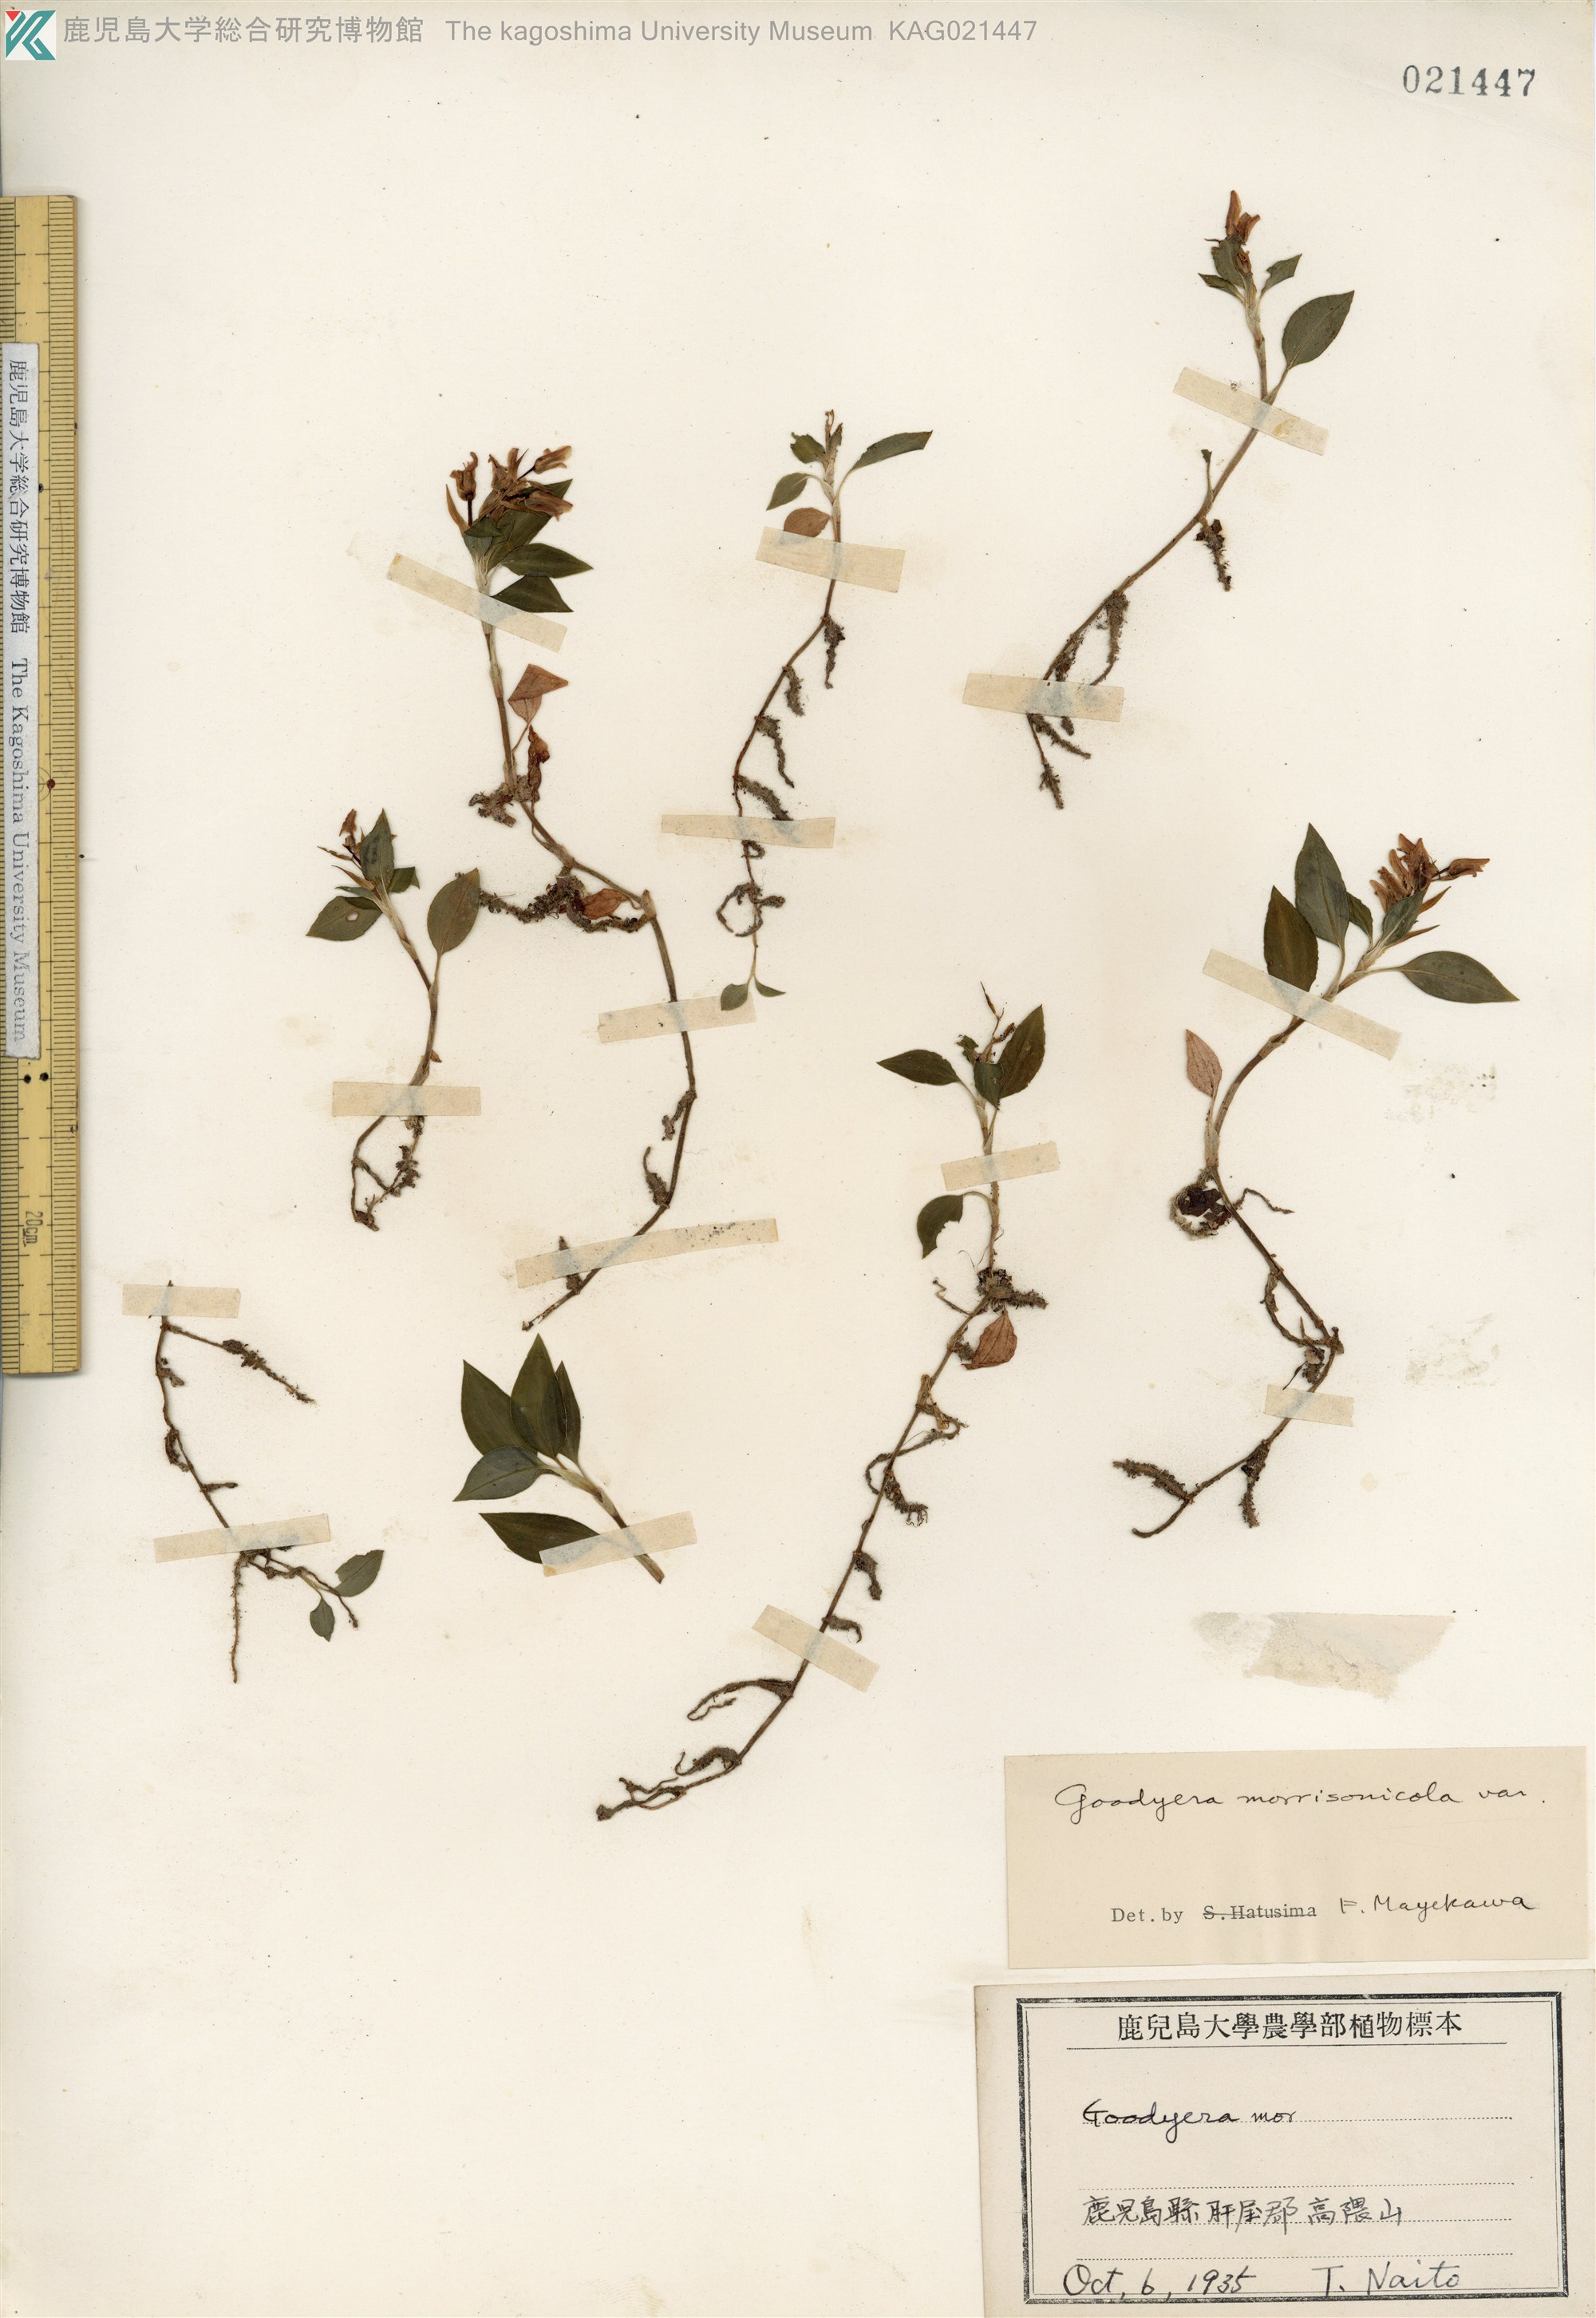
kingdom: Plantae
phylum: Tracheophyta
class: Liliopsida
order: Asparagales
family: Orchidaceae
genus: Goodyera
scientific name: Goodyera henryi
